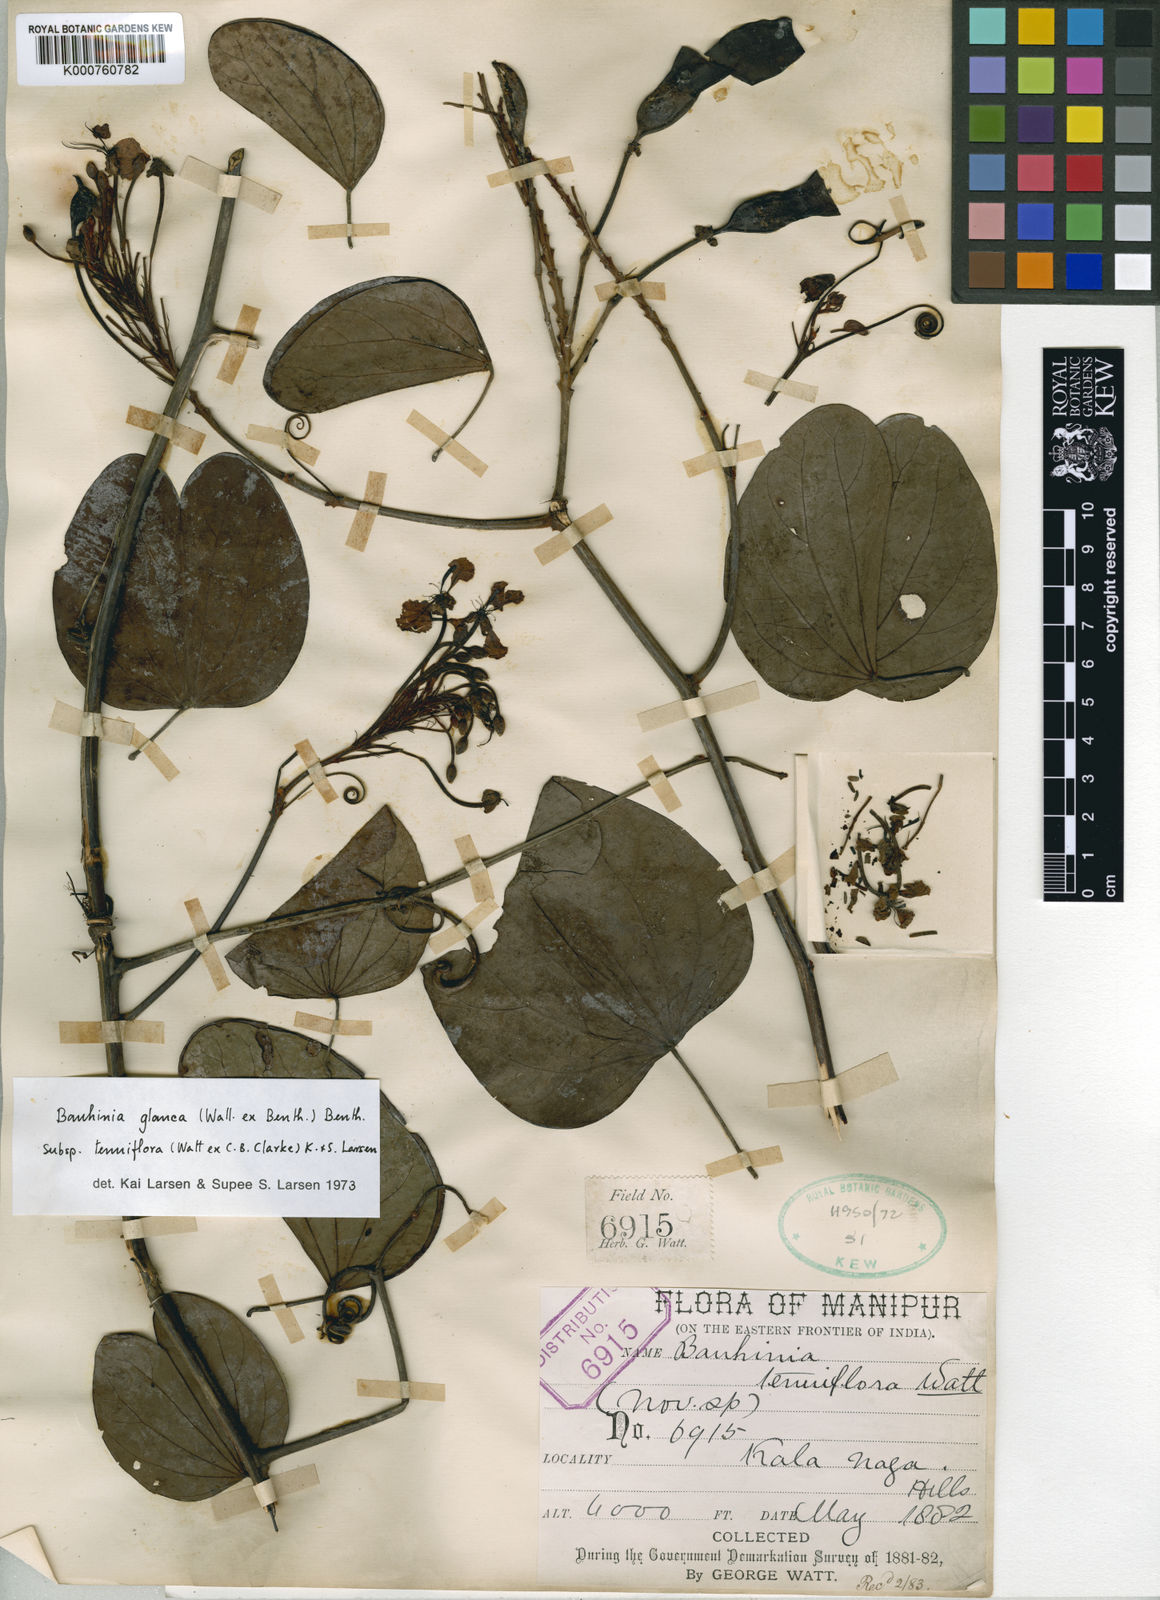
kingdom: Plantae
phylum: Tracheophyta
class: Magnoliopsida
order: Fabales
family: Fabaceae
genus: Cheniella
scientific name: Cheniella tenuiflora
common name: Bauhinia
